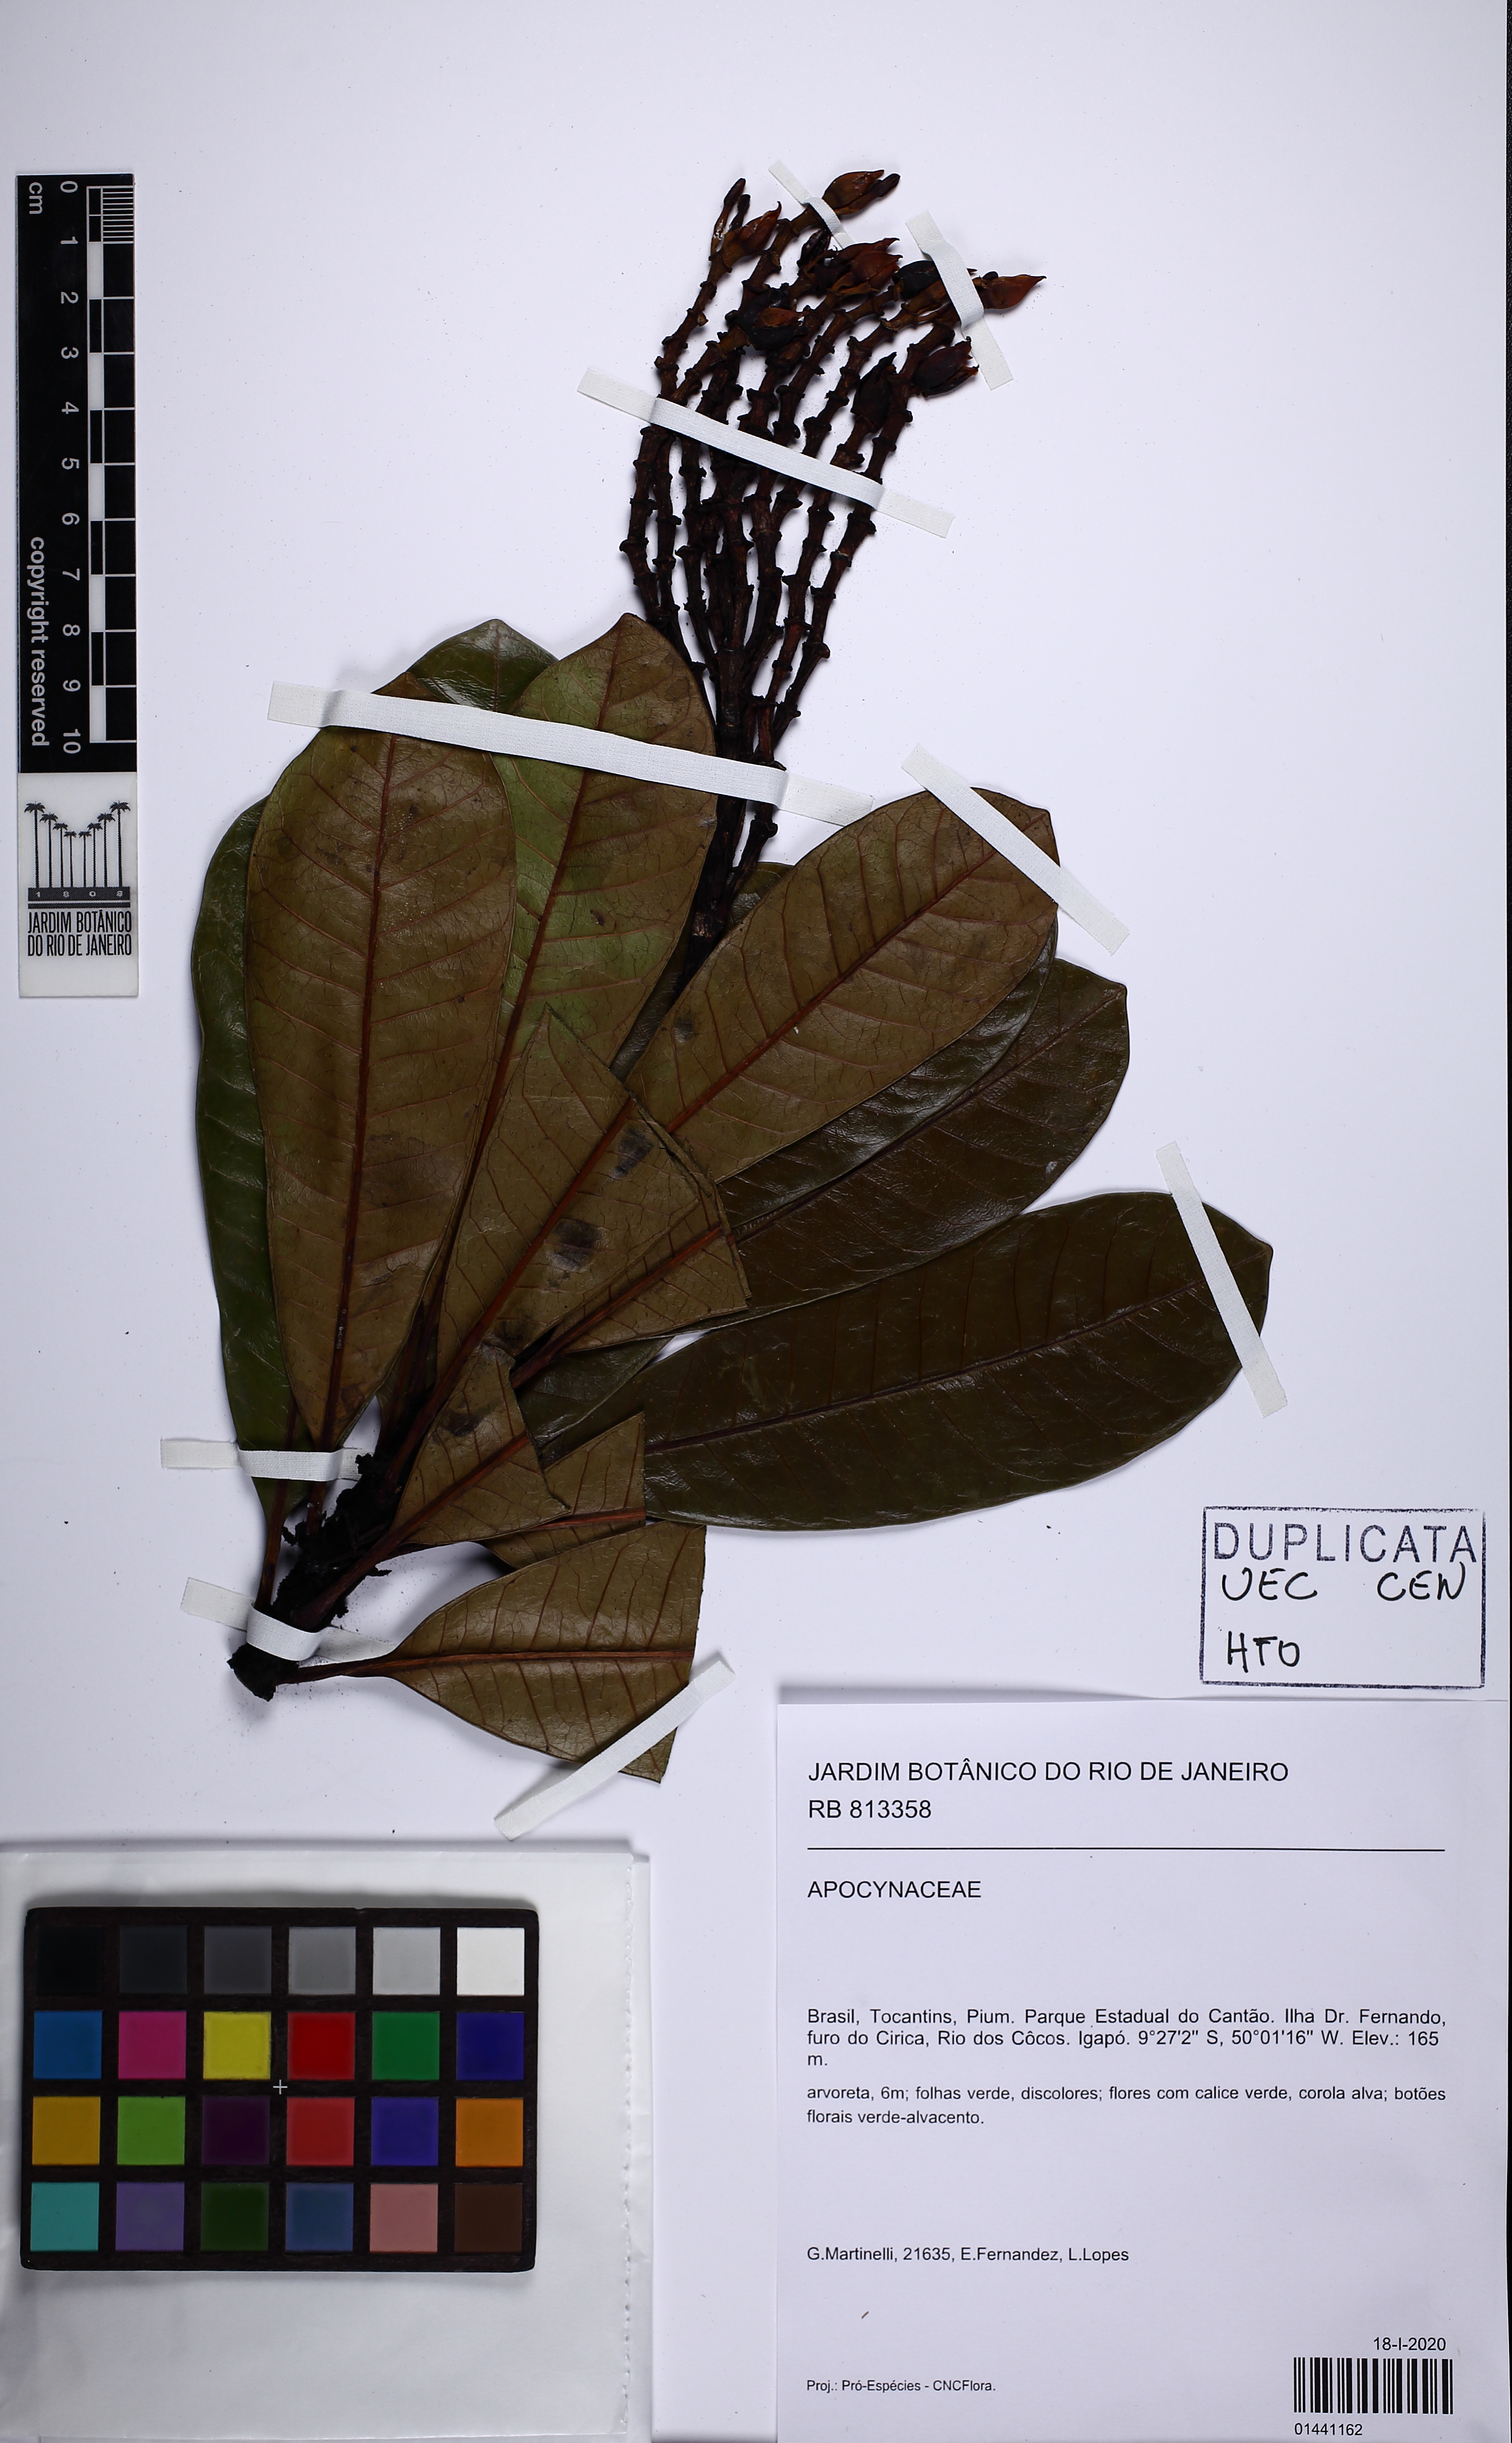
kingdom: Plantae
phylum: Tracheophyta
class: Magnoliopsida
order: Gentianales
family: Apocynaceae
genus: Himatanthus
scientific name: Himatanthus drasticus
